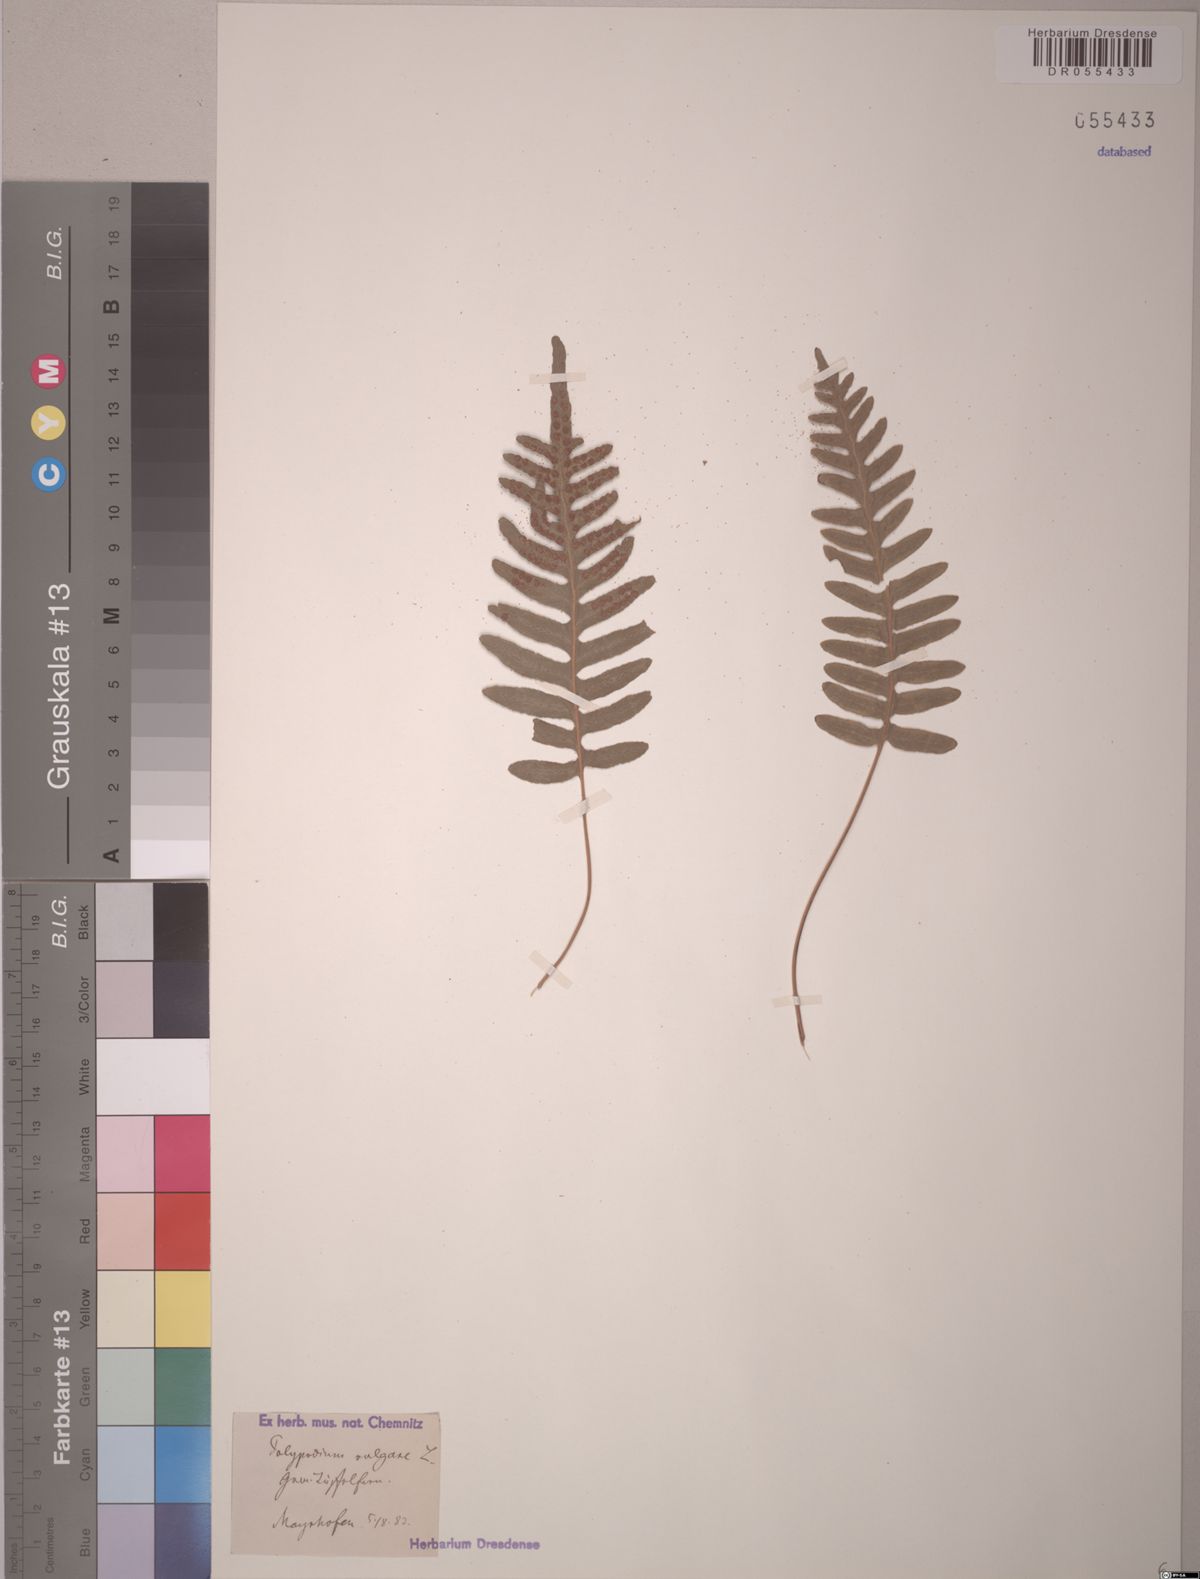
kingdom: Plantae
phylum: Tracheophyta
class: Polypodiopsida
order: Polypodiales
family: Polypodiaceae
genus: Polypodium
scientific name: Polypodium vulgare
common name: Common polypody
